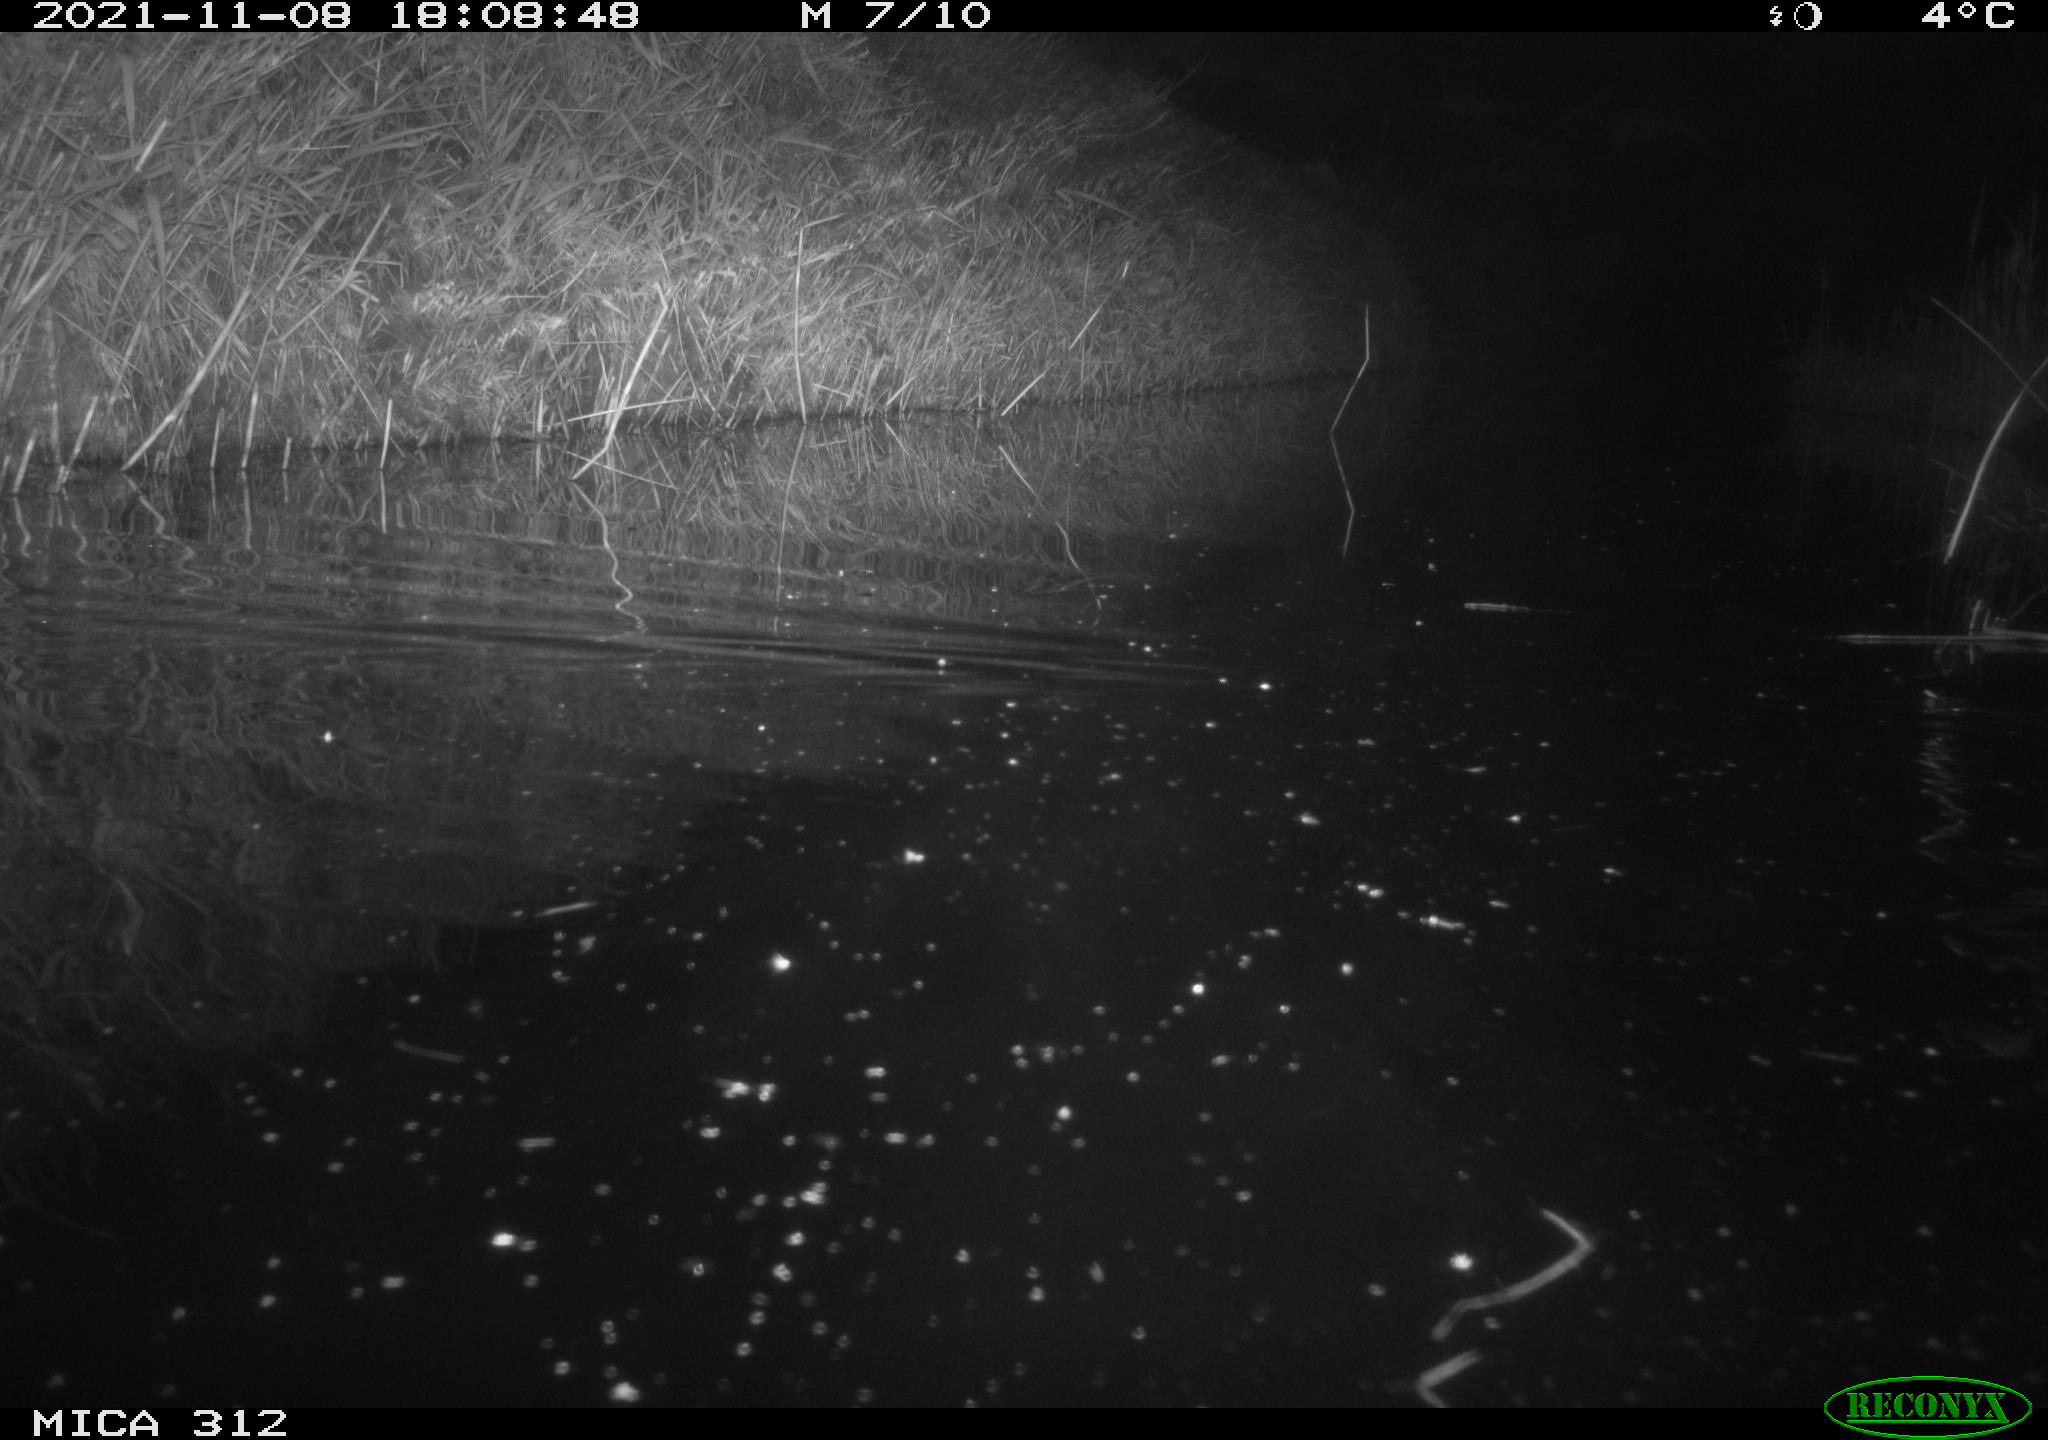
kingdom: Animalia
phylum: Chordata
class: Mammalia
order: Rodentia
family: Muridae
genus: Rattus
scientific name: Rattus norvegicus
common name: Brown rat
